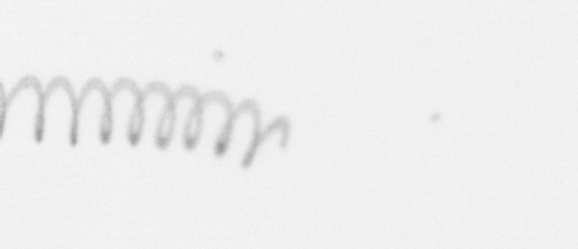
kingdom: Chromista
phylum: Ochrophyta
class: Bacillariophyceae
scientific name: Bacillariophyceae
